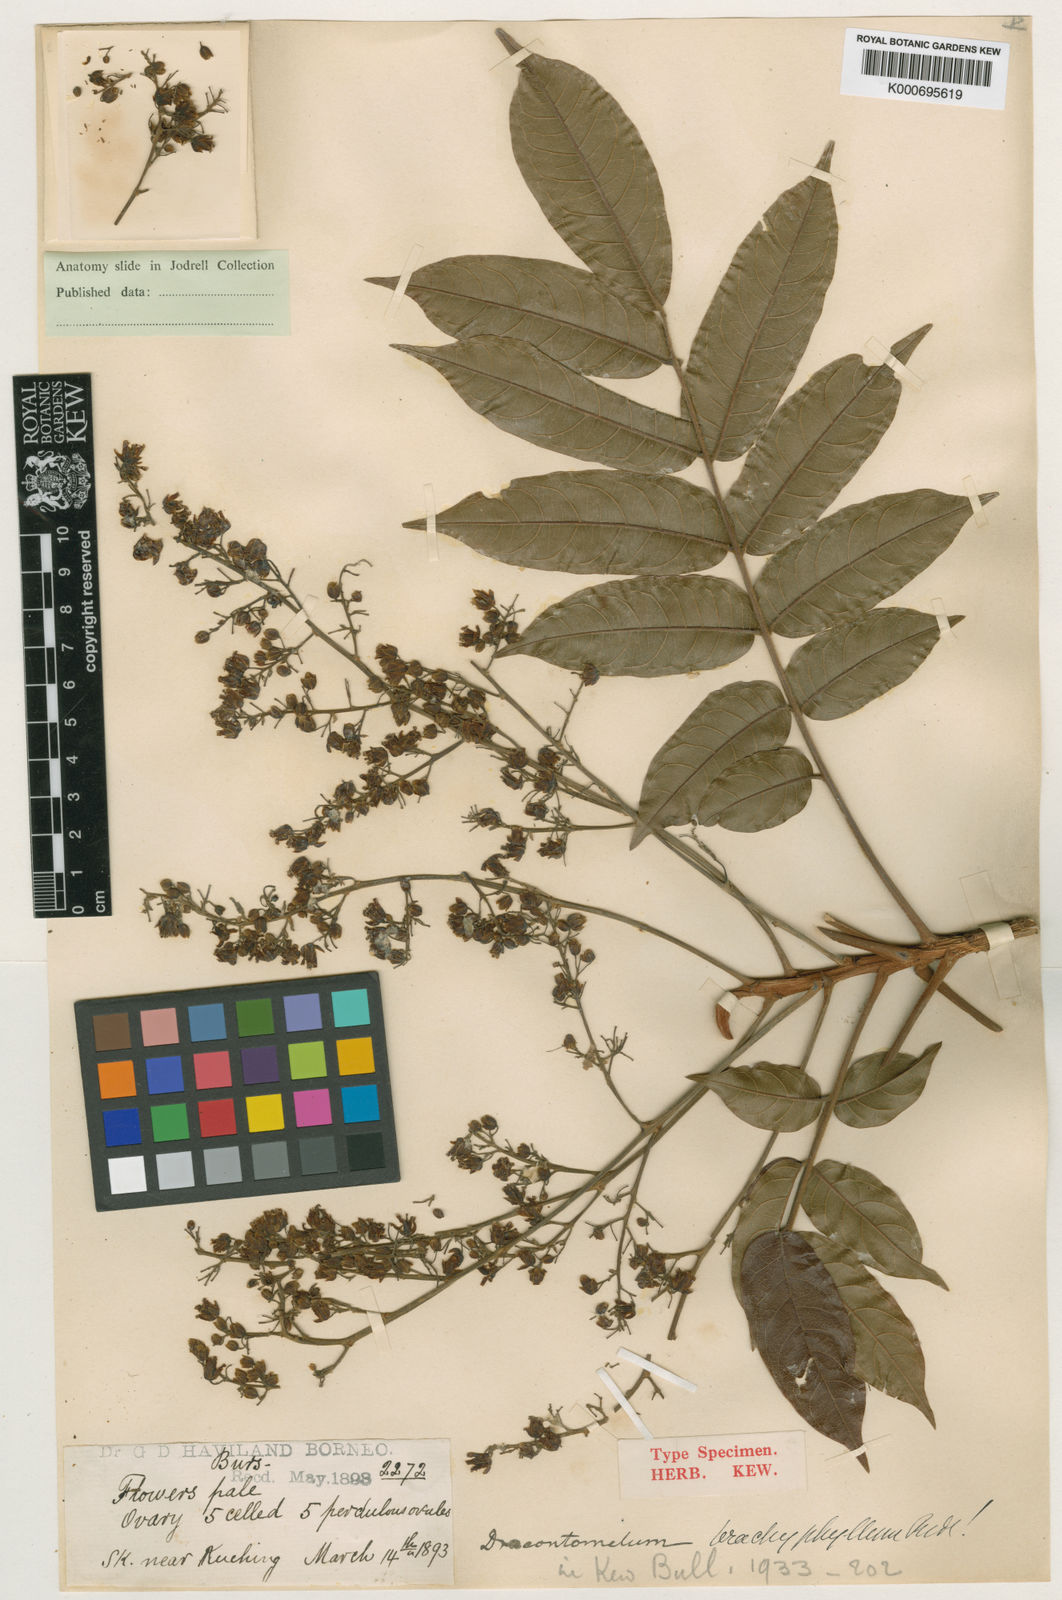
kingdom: Plantae
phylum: Tracheophyta
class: Magnoliopsida
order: Sapindales
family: Anacardiaceae
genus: Dracontomelon
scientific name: Dracontomelon dao
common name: Argus pheasant-tree
